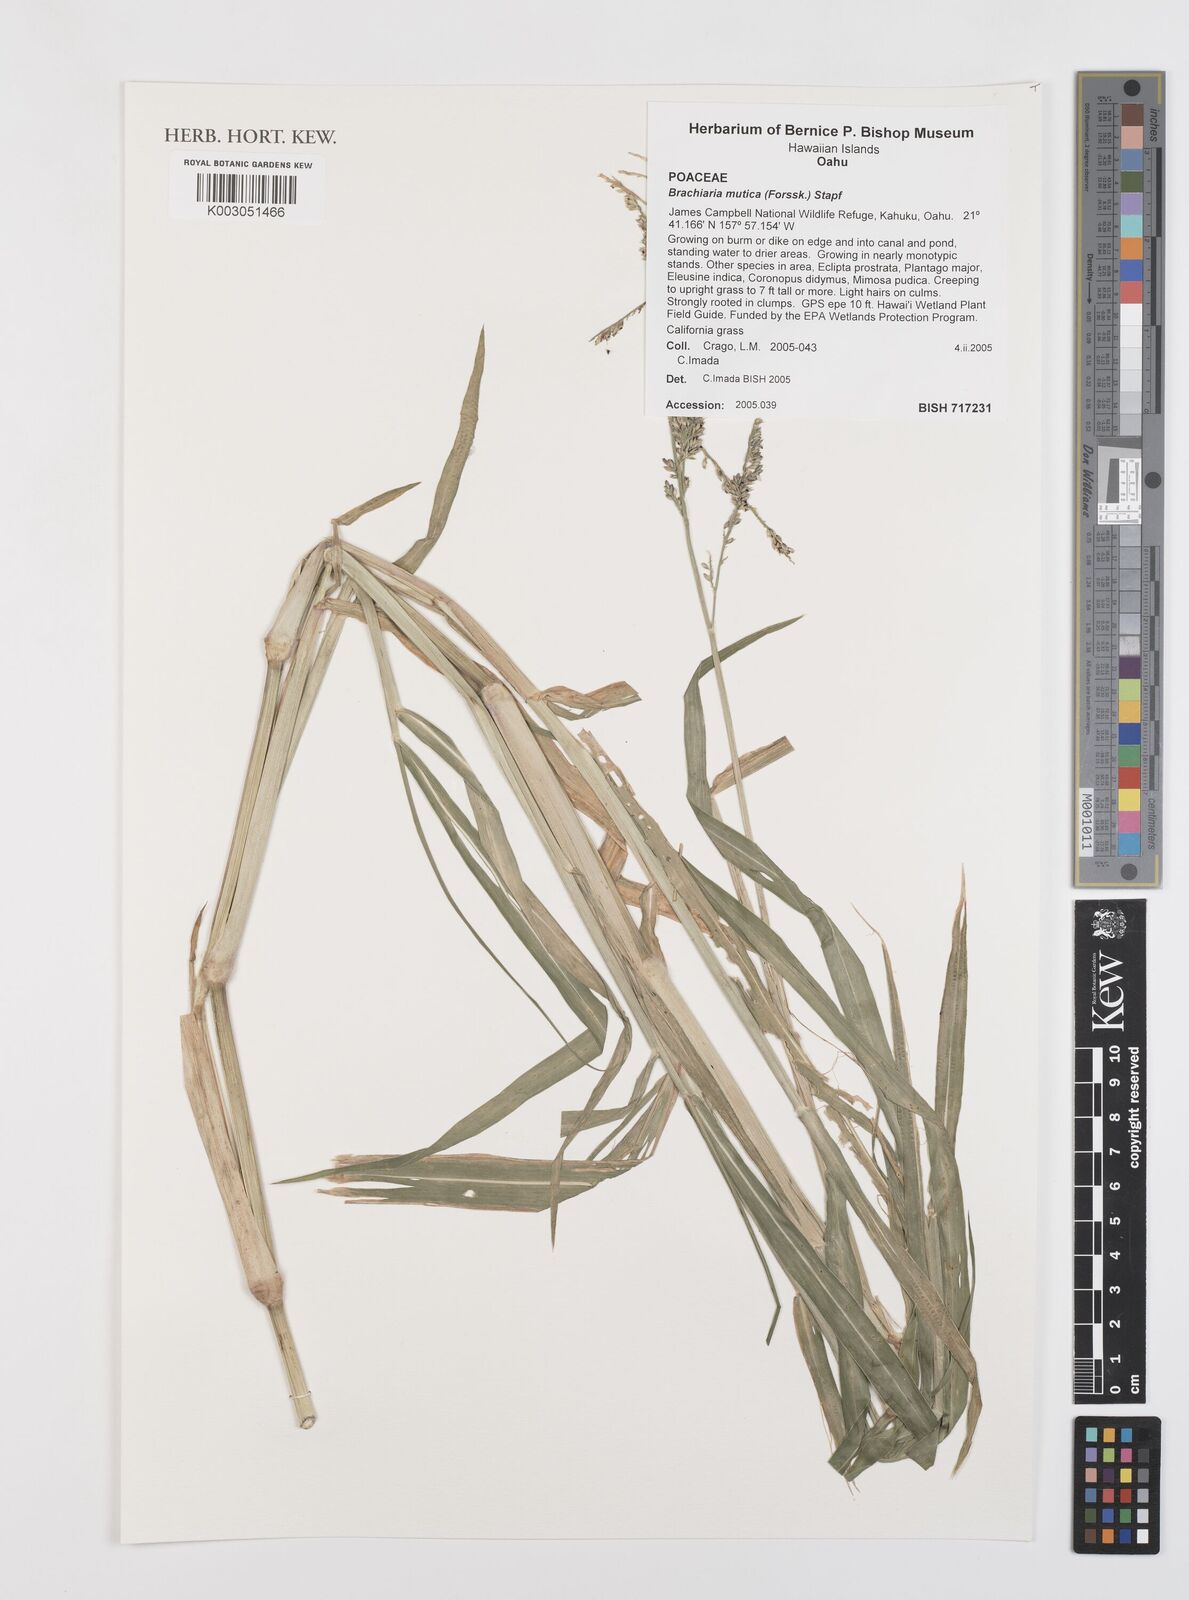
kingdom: Plantae
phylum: Tracheophyta
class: Liliopsida
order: Poales
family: Poaceae
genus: Urochloa
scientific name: Urochloa mutica
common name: Para grass
